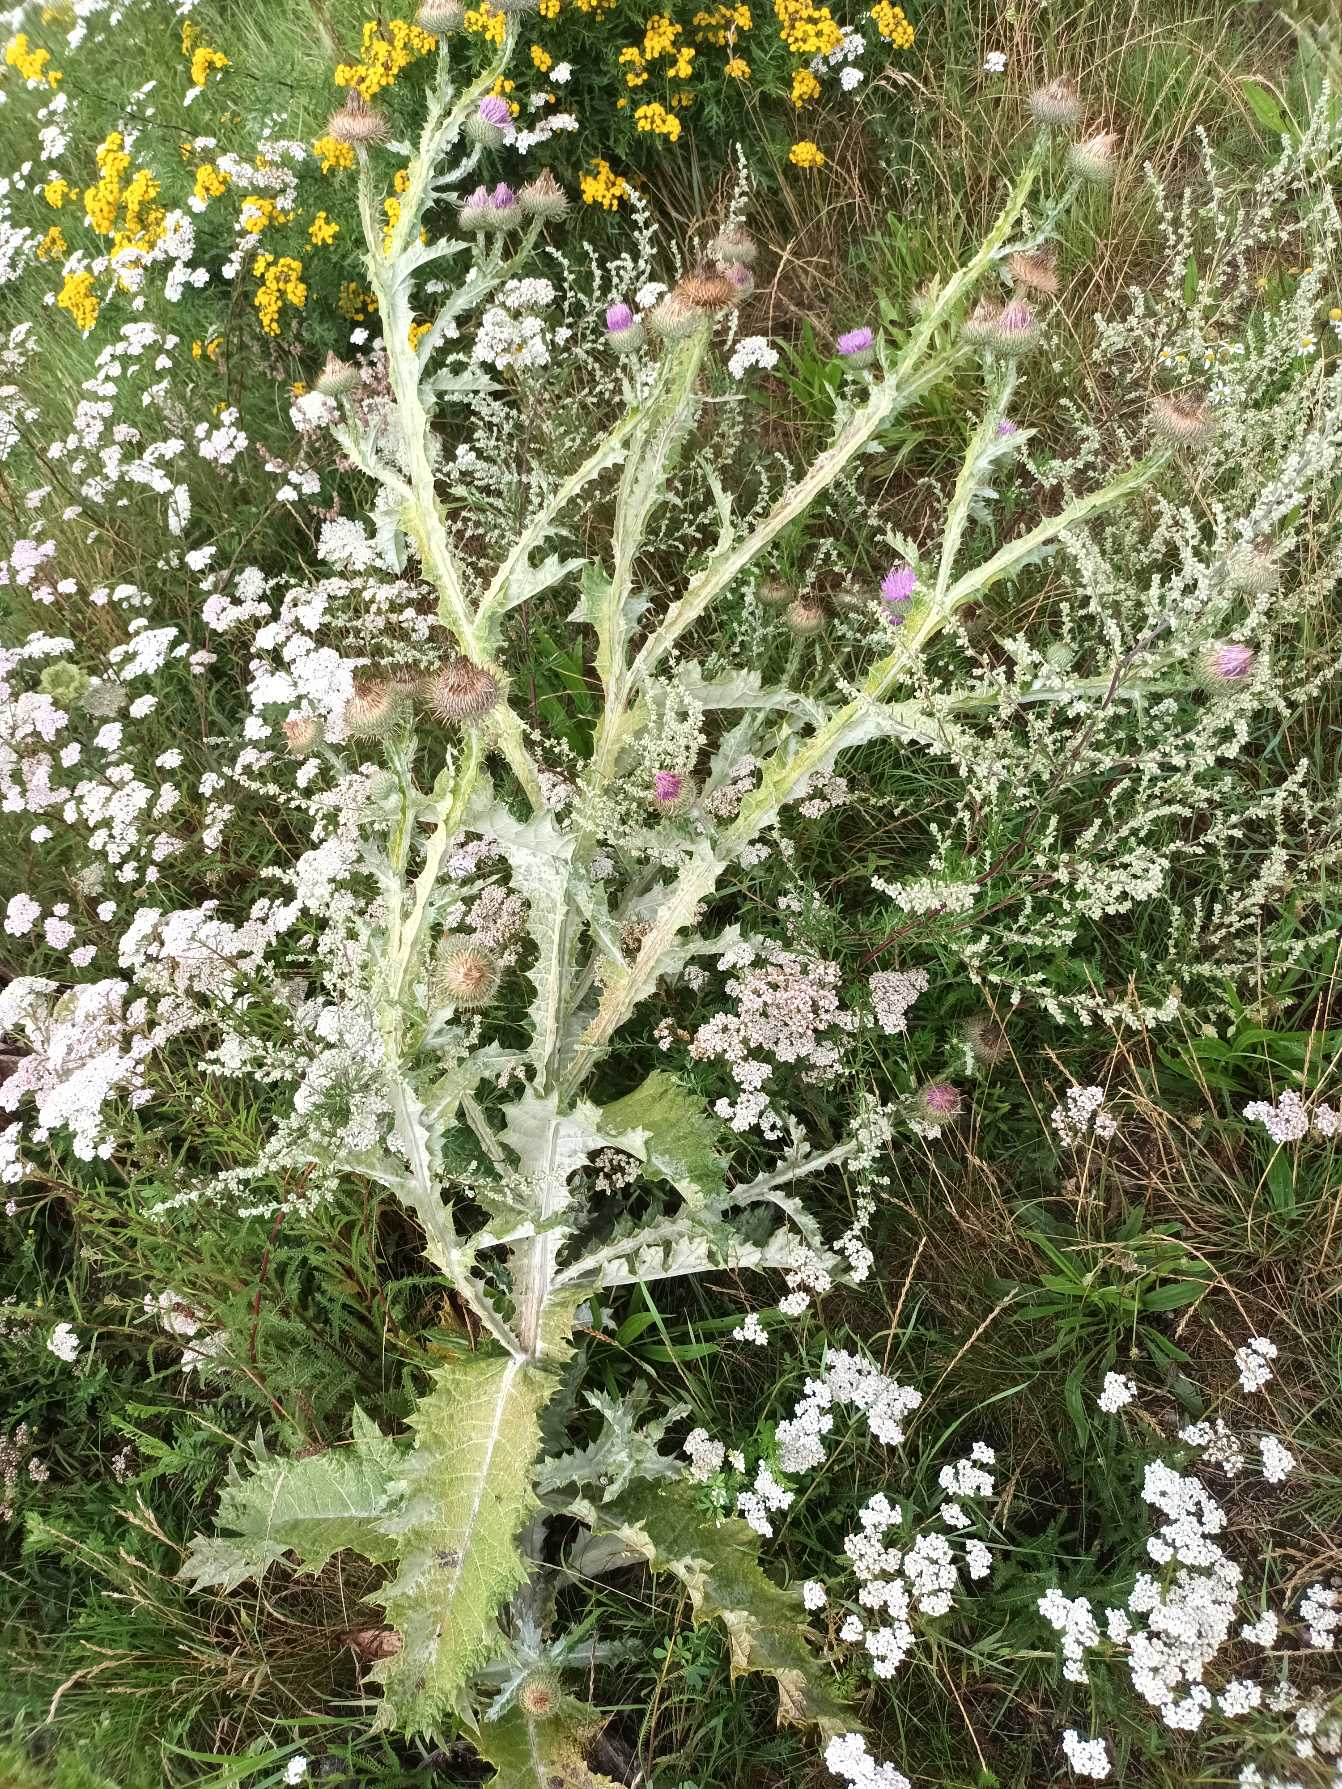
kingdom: Plantae
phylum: Tracheophyta
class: Magnoliopsida
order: Asterales
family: Asteraceae
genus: Onopordum
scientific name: Onopordum acanthium
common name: Æselfoder
